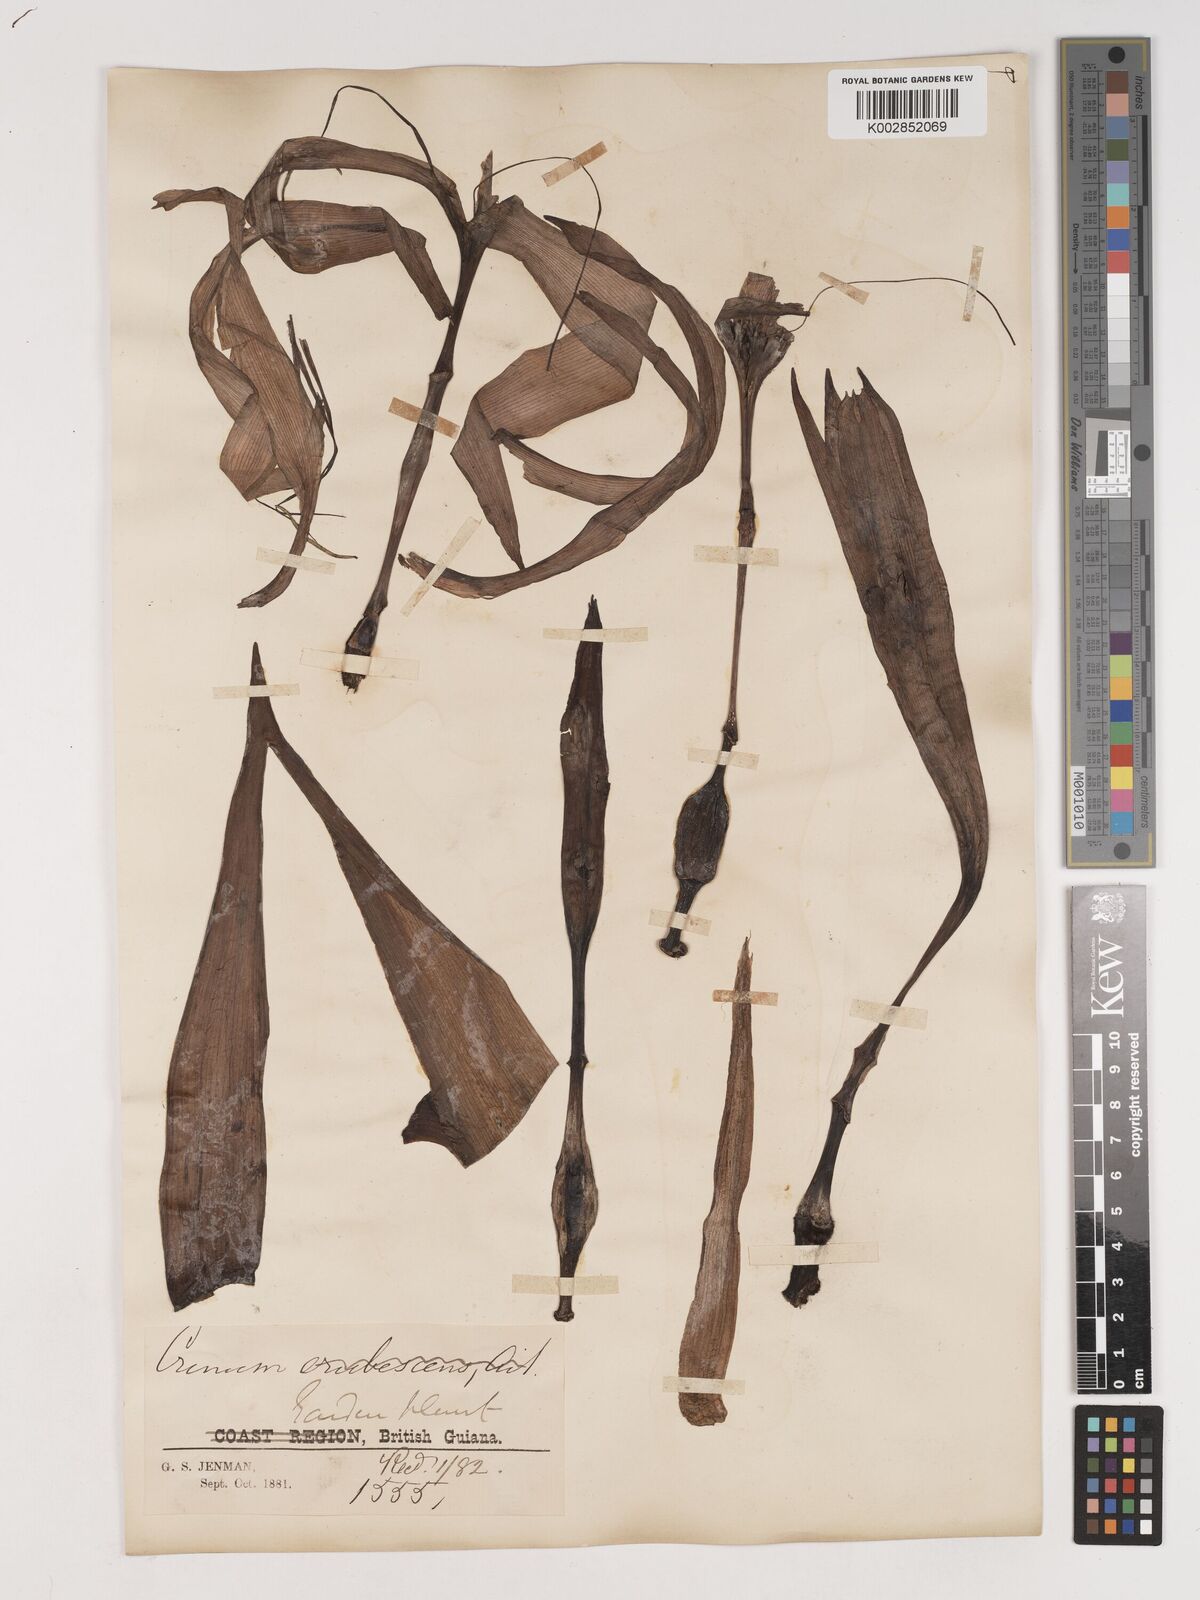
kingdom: Plantae
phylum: Tracheophyta
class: Liliopsida
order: Asparagales
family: Amaryllidaceae
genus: Crinum
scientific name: Crinum amabile
